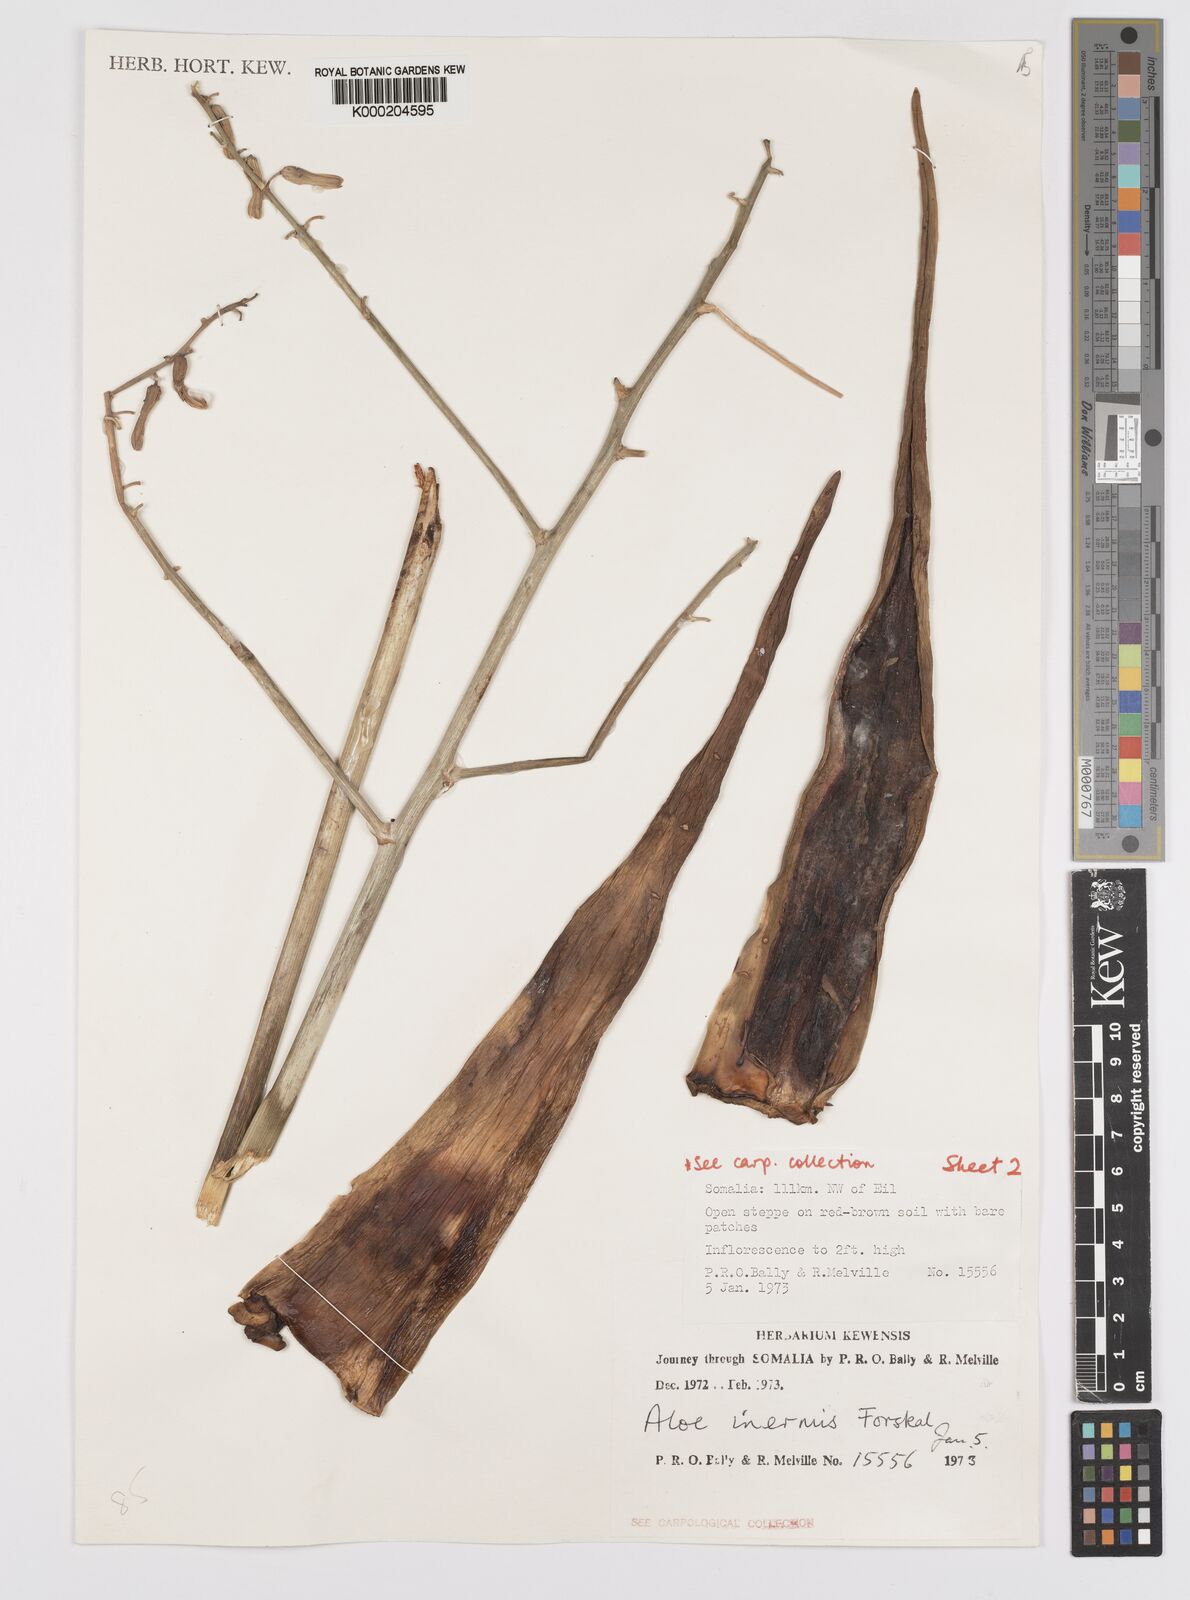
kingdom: Plantae
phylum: Tracheophyta
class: Liliopsida
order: Asparagales
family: Asphodelaceae
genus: Aloe
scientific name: Aloe luntii
